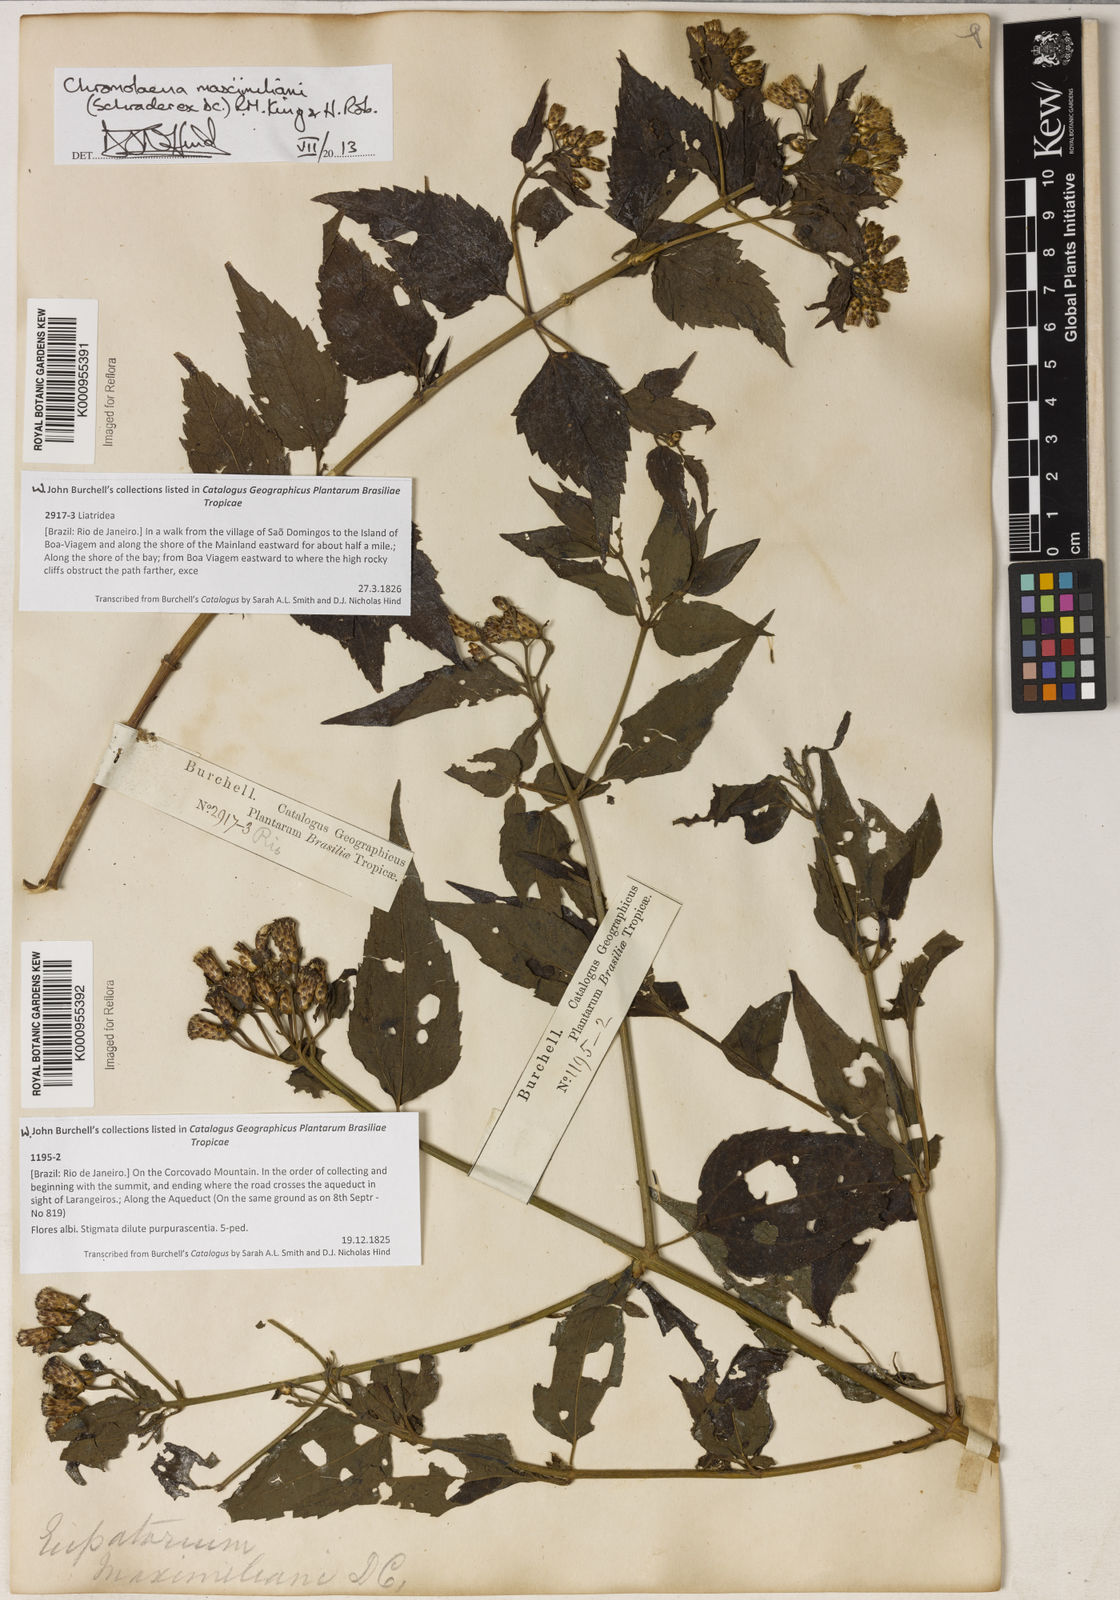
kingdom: Plantae
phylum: Tracheophyta
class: Magnoliopsida
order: Asterales
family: Asteraceae
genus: Chromolaena
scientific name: Chromolaena maximiliani
